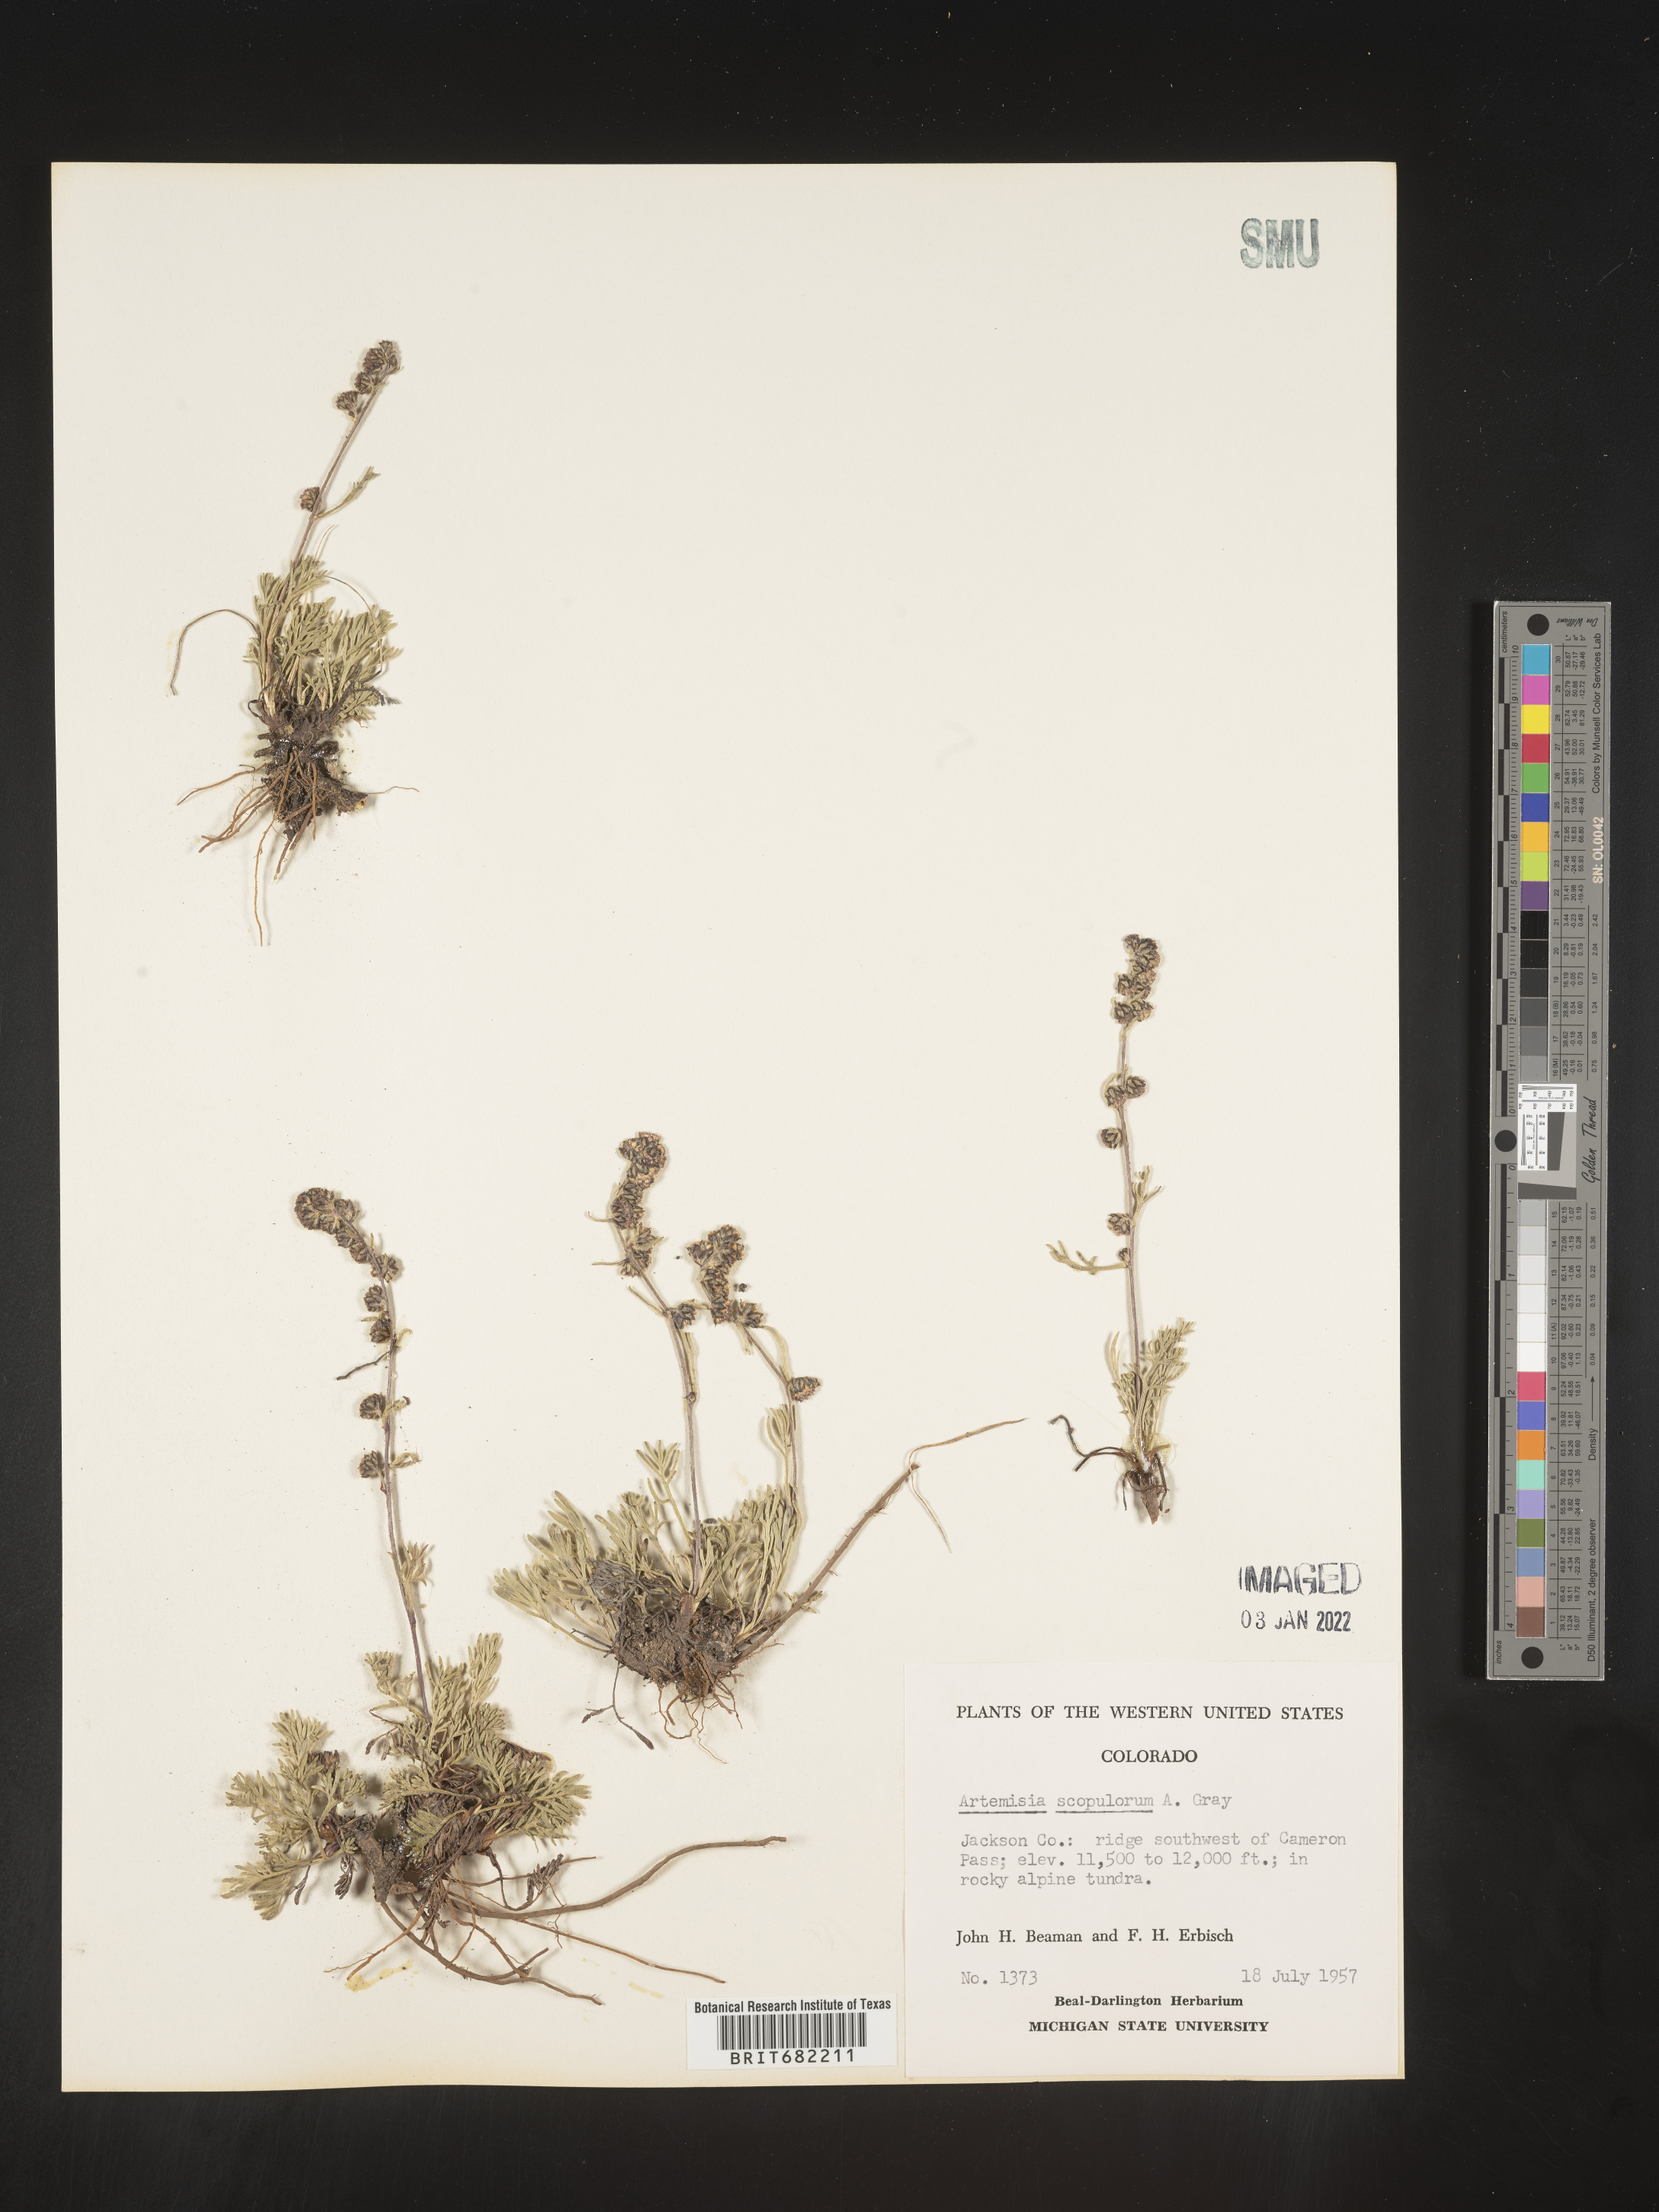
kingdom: Plantae
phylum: Tracheophyta
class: Magnoliopsida
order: Asterales
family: Asteraceae
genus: Artemisia
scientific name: Artemisia scopulorum
